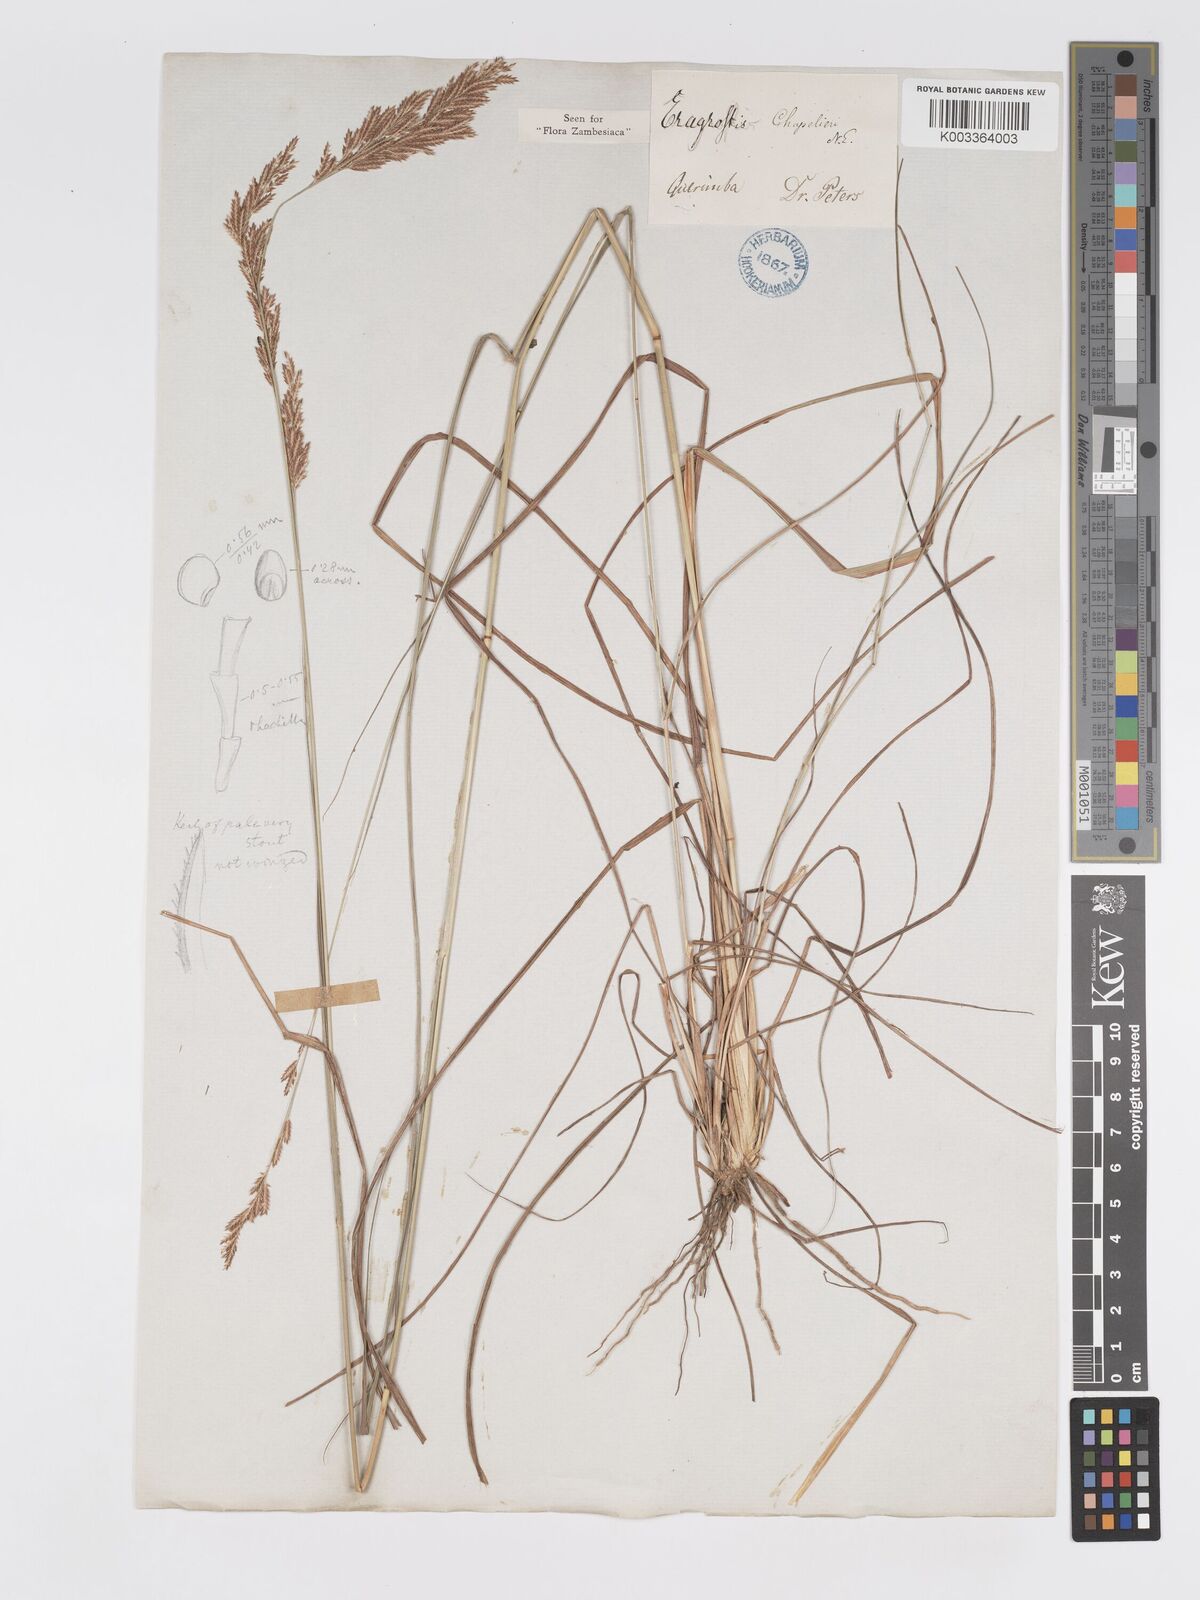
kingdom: Plantae
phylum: Tracheophyta
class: Liliopsida
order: Poales
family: Poaceae
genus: Eragrostis
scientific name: Eragrostis chapelieri
